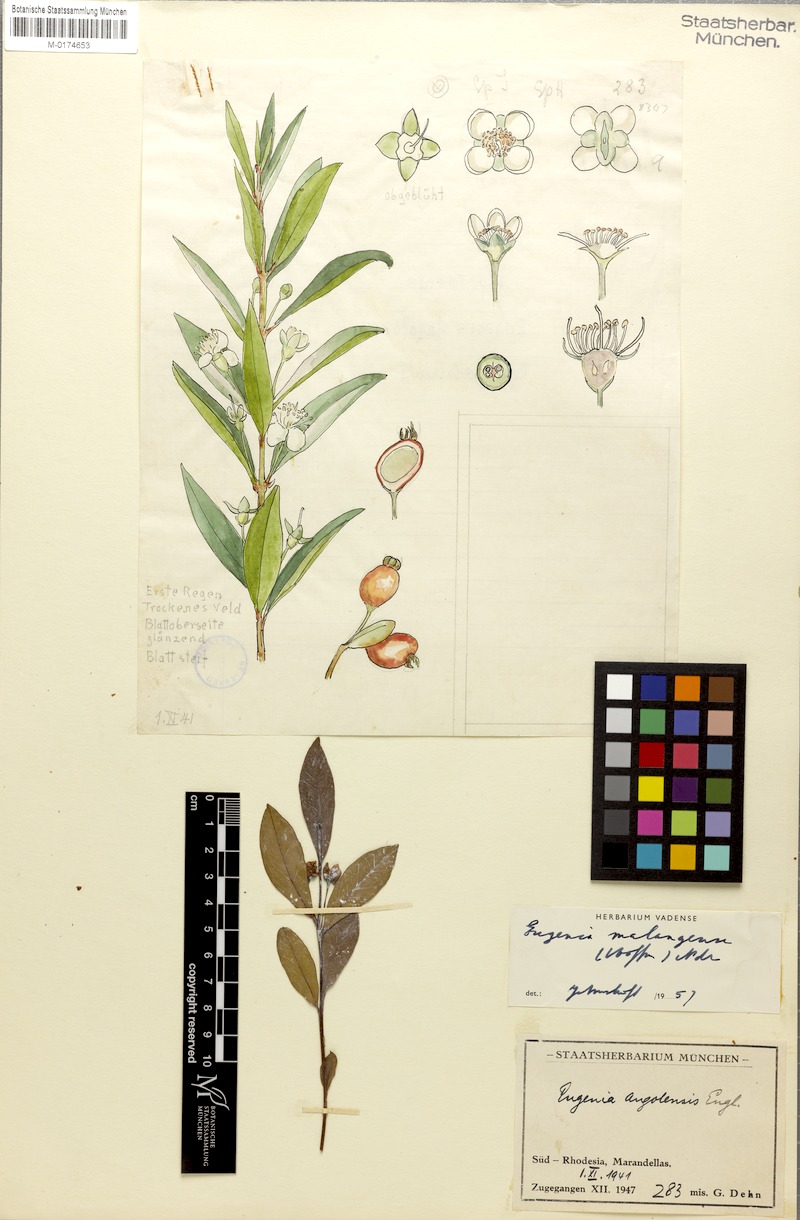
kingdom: Plantae
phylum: Tracheophyta
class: Magnoliopsida
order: Myrtales
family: Myrtaceae
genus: Eugenia
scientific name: Eugenia malangensis
